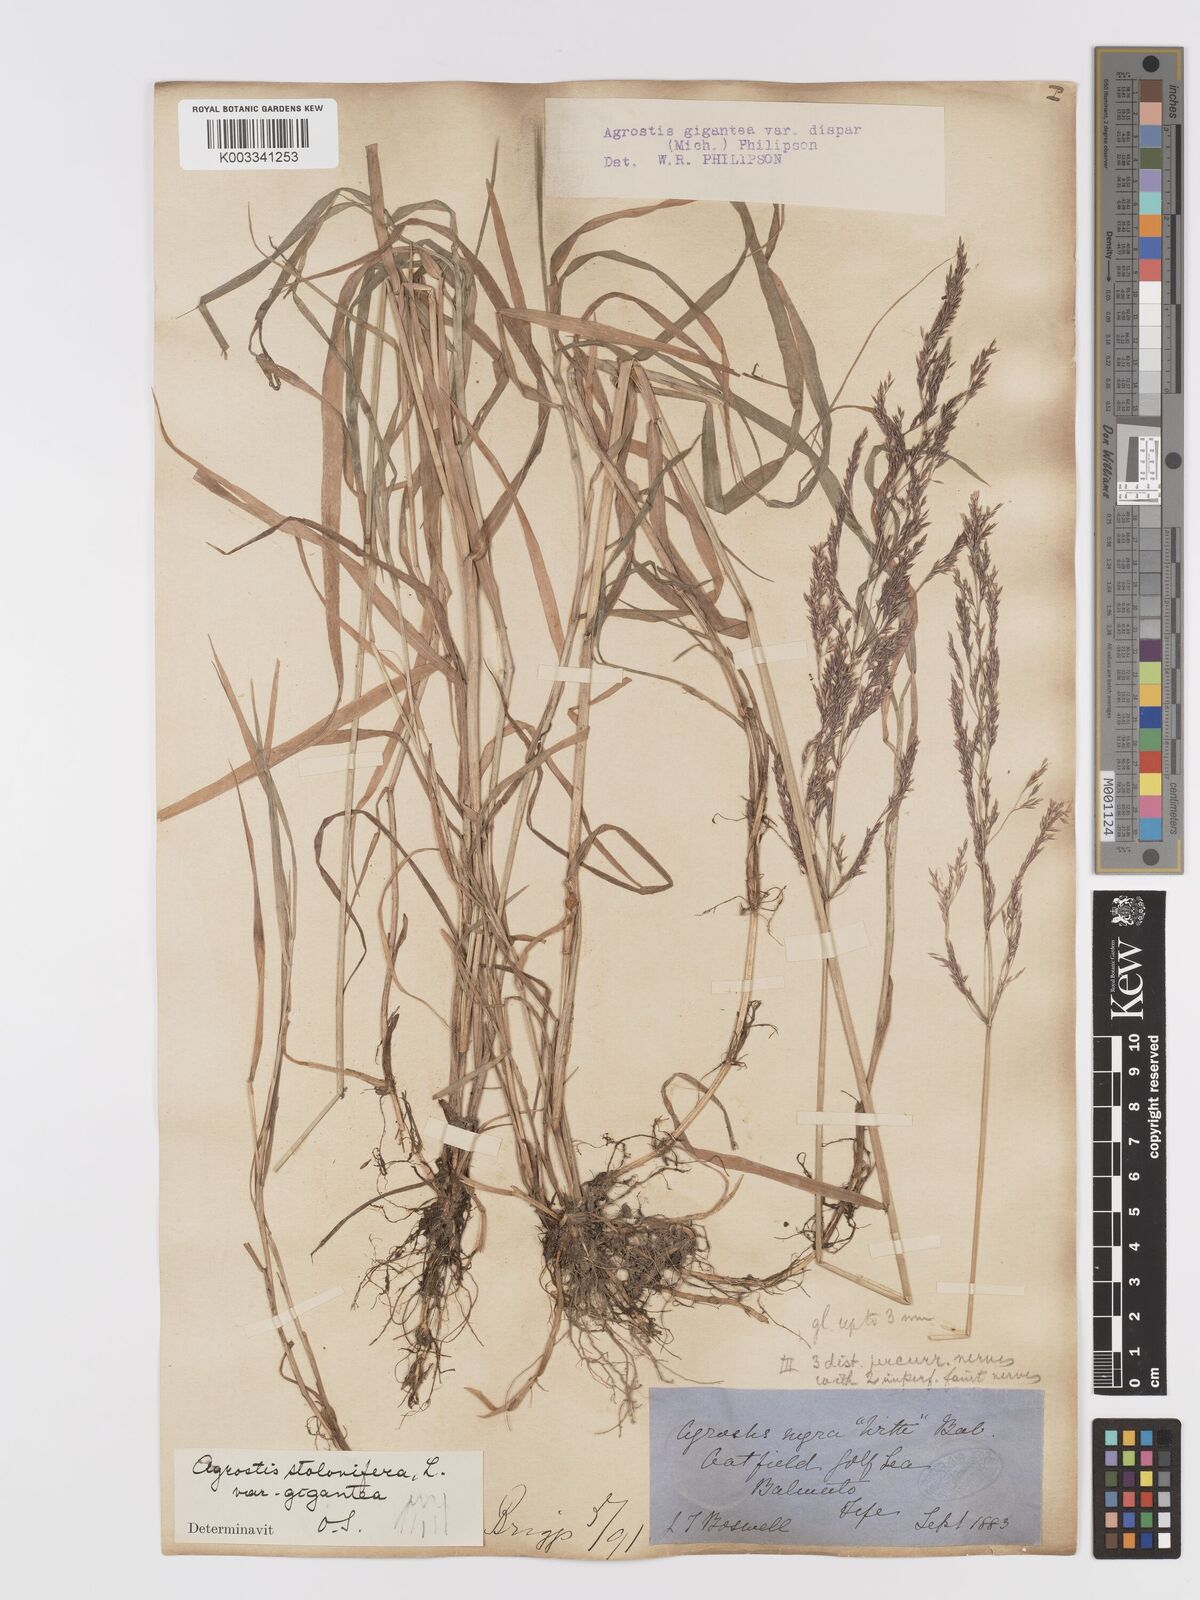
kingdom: Plantae
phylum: Tracheophyta
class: Liliopsida
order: Poales
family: Poaceae
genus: Agrostis
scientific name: Agrostis gigantea
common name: Black bent
